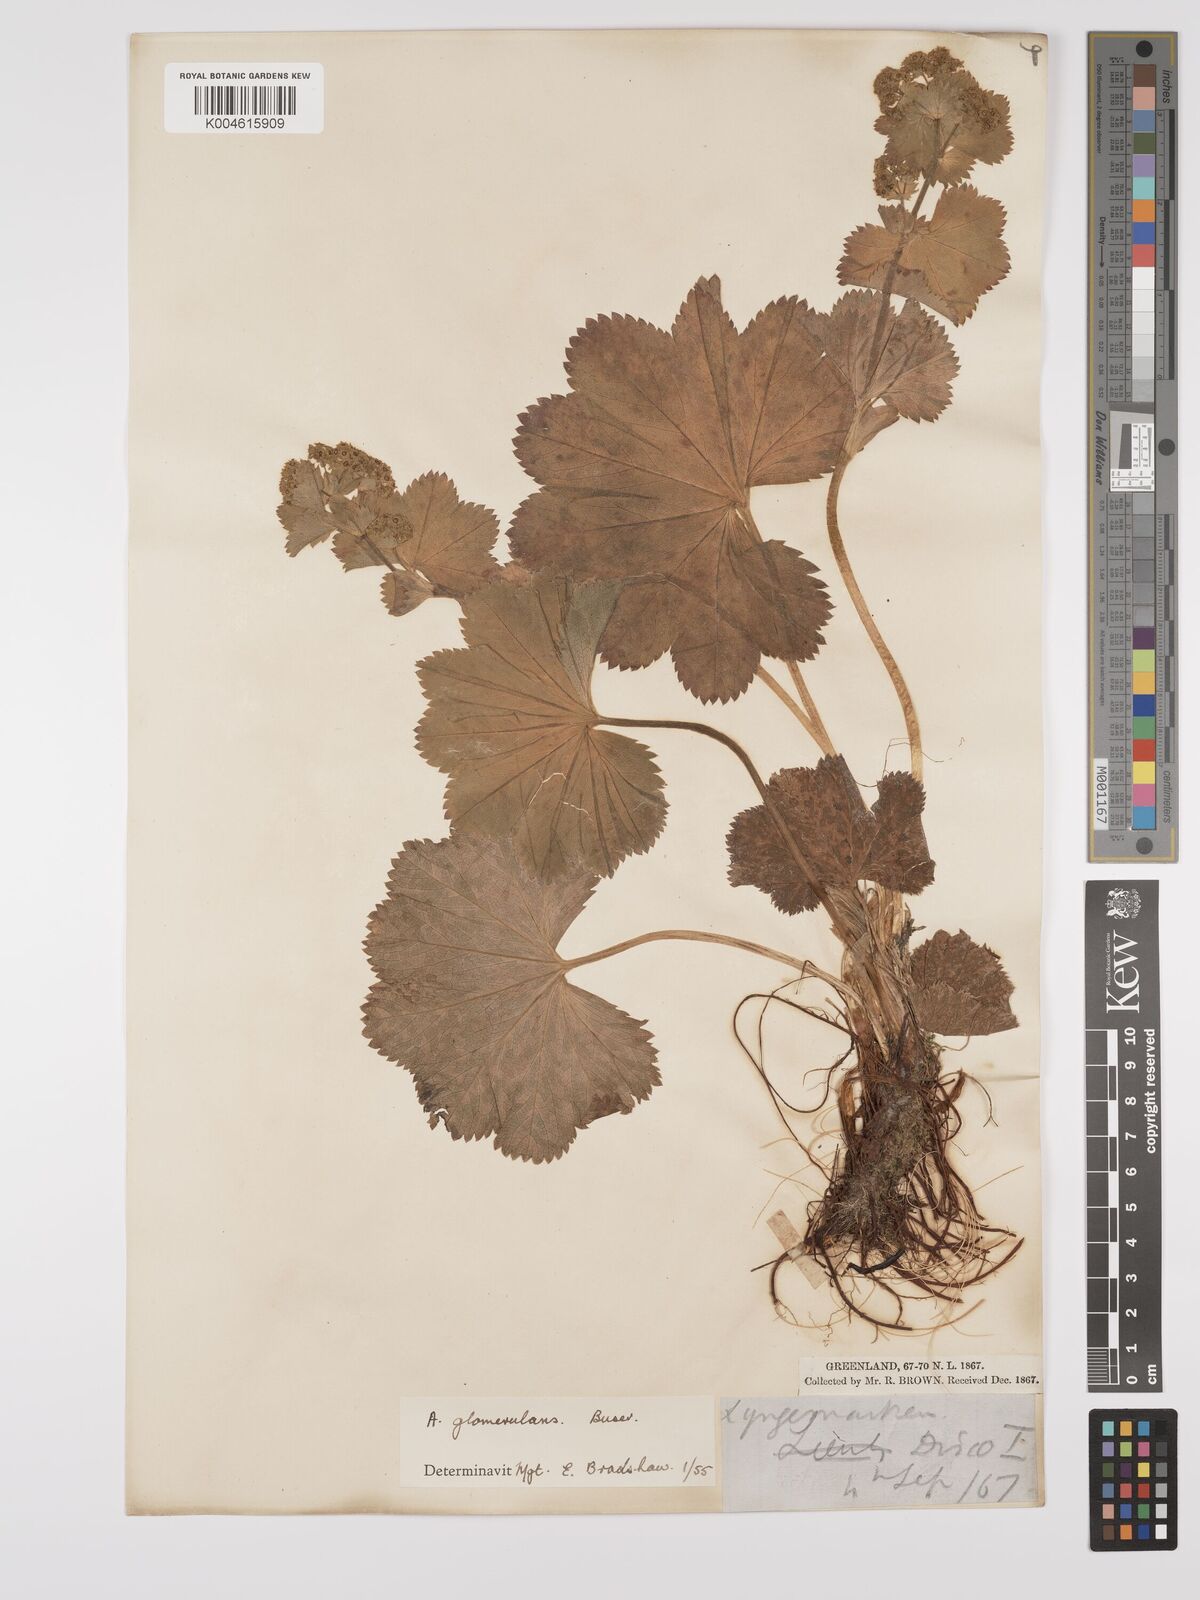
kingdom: Plantae
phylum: Tracheophyta
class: Magnoliopsida
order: Rosales
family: Rosaceae
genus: Alchemilla
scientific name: Alchemilla vulgaris
